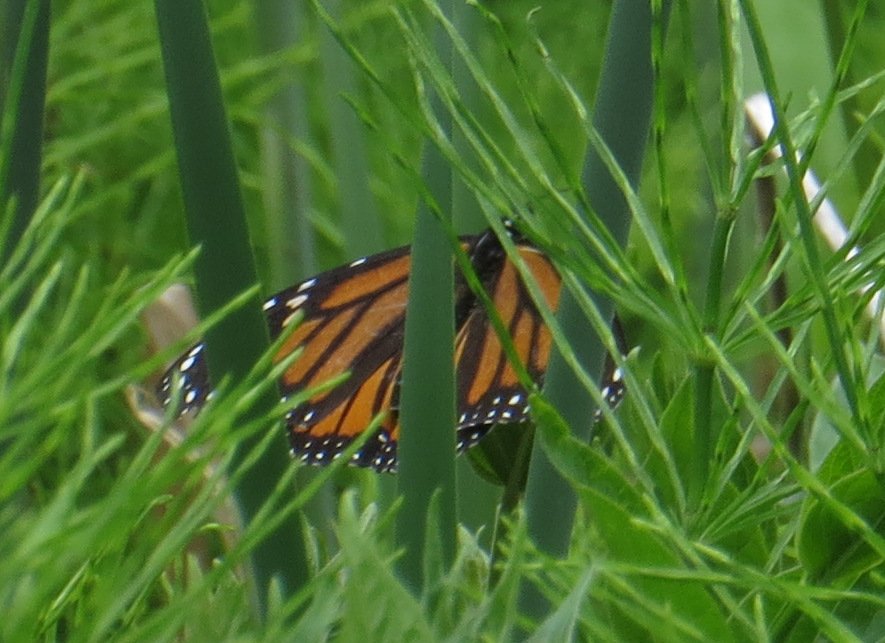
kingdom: Animalia
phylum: Arthropoda
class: Insecta
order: Lepidoptera
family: Nymphalidae
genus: Danaus
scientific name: Danaus plexippus
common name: Monarch
